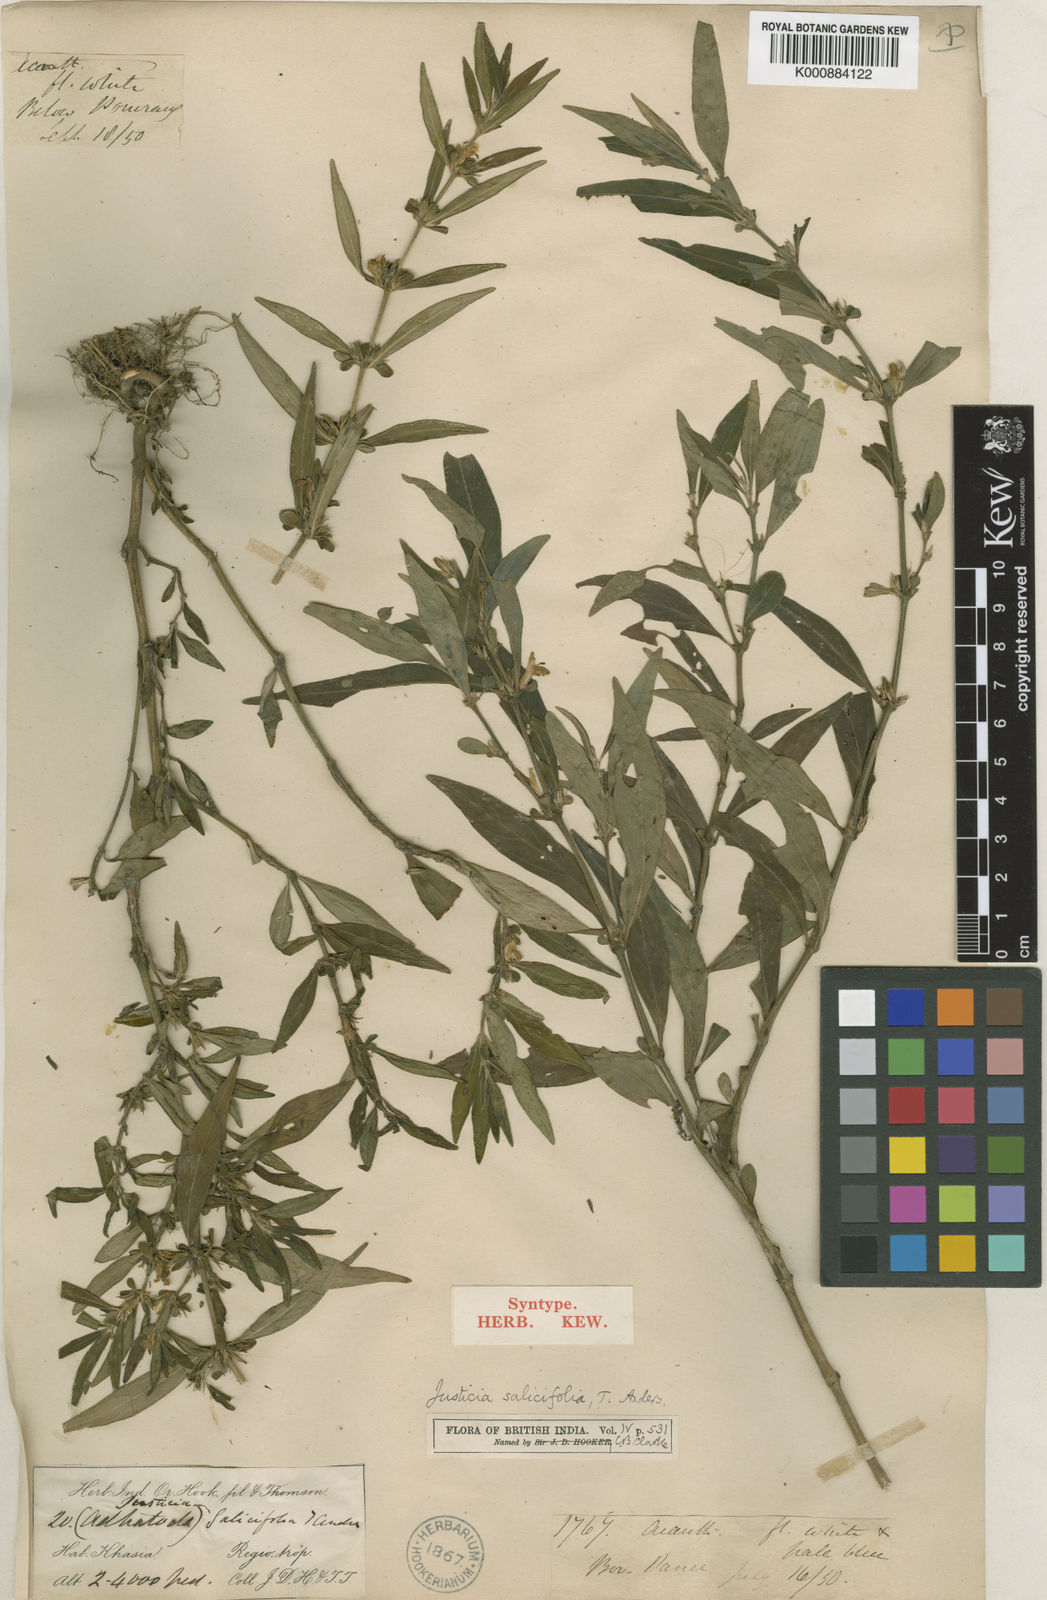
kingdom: Plantae
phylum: Tracheophyta
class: Magnoliopsida
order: Lamiales
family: Acanthaceae
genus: Justicia
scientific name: Justicia barapaniensis
